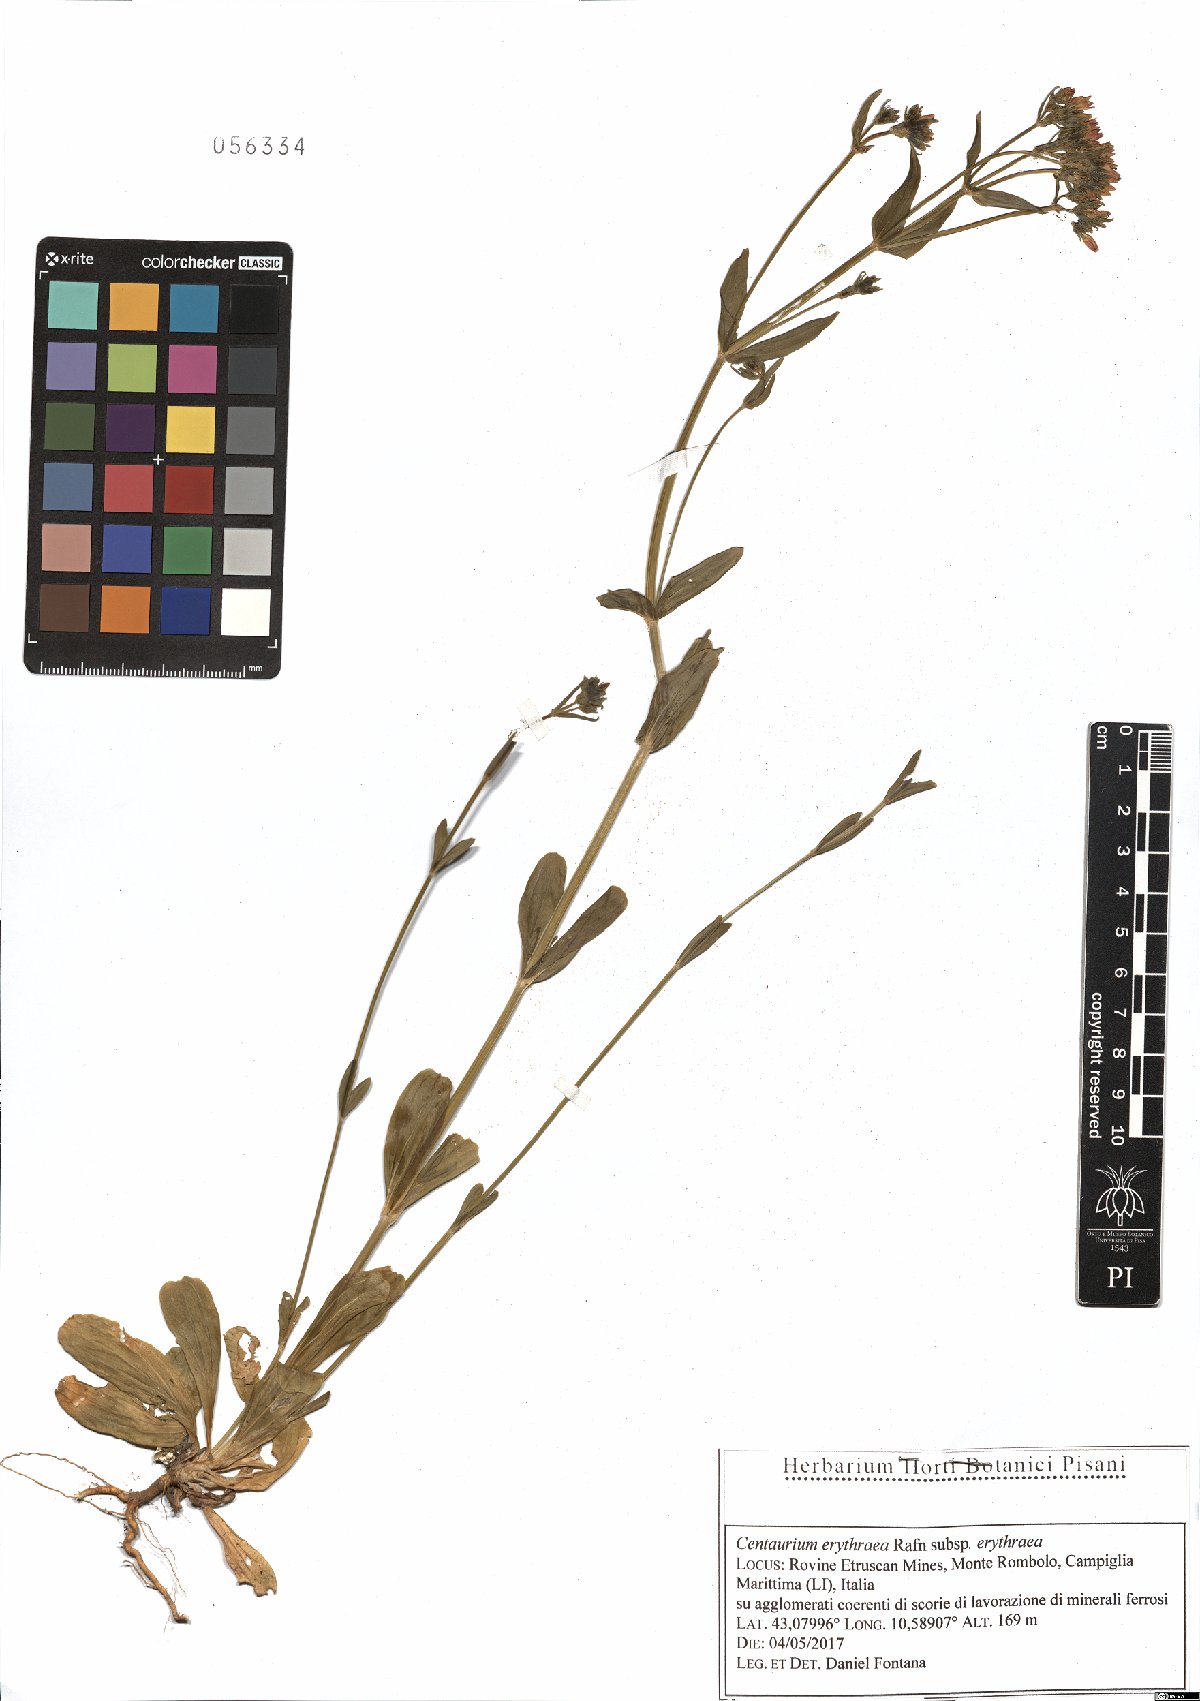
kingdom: Plantae
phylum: Tracheophyta
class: Magnoliopsida
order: Gentianales
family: Gentianaceae
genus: Centaurium
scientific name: Centaurium erythraea
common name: Common centaury
